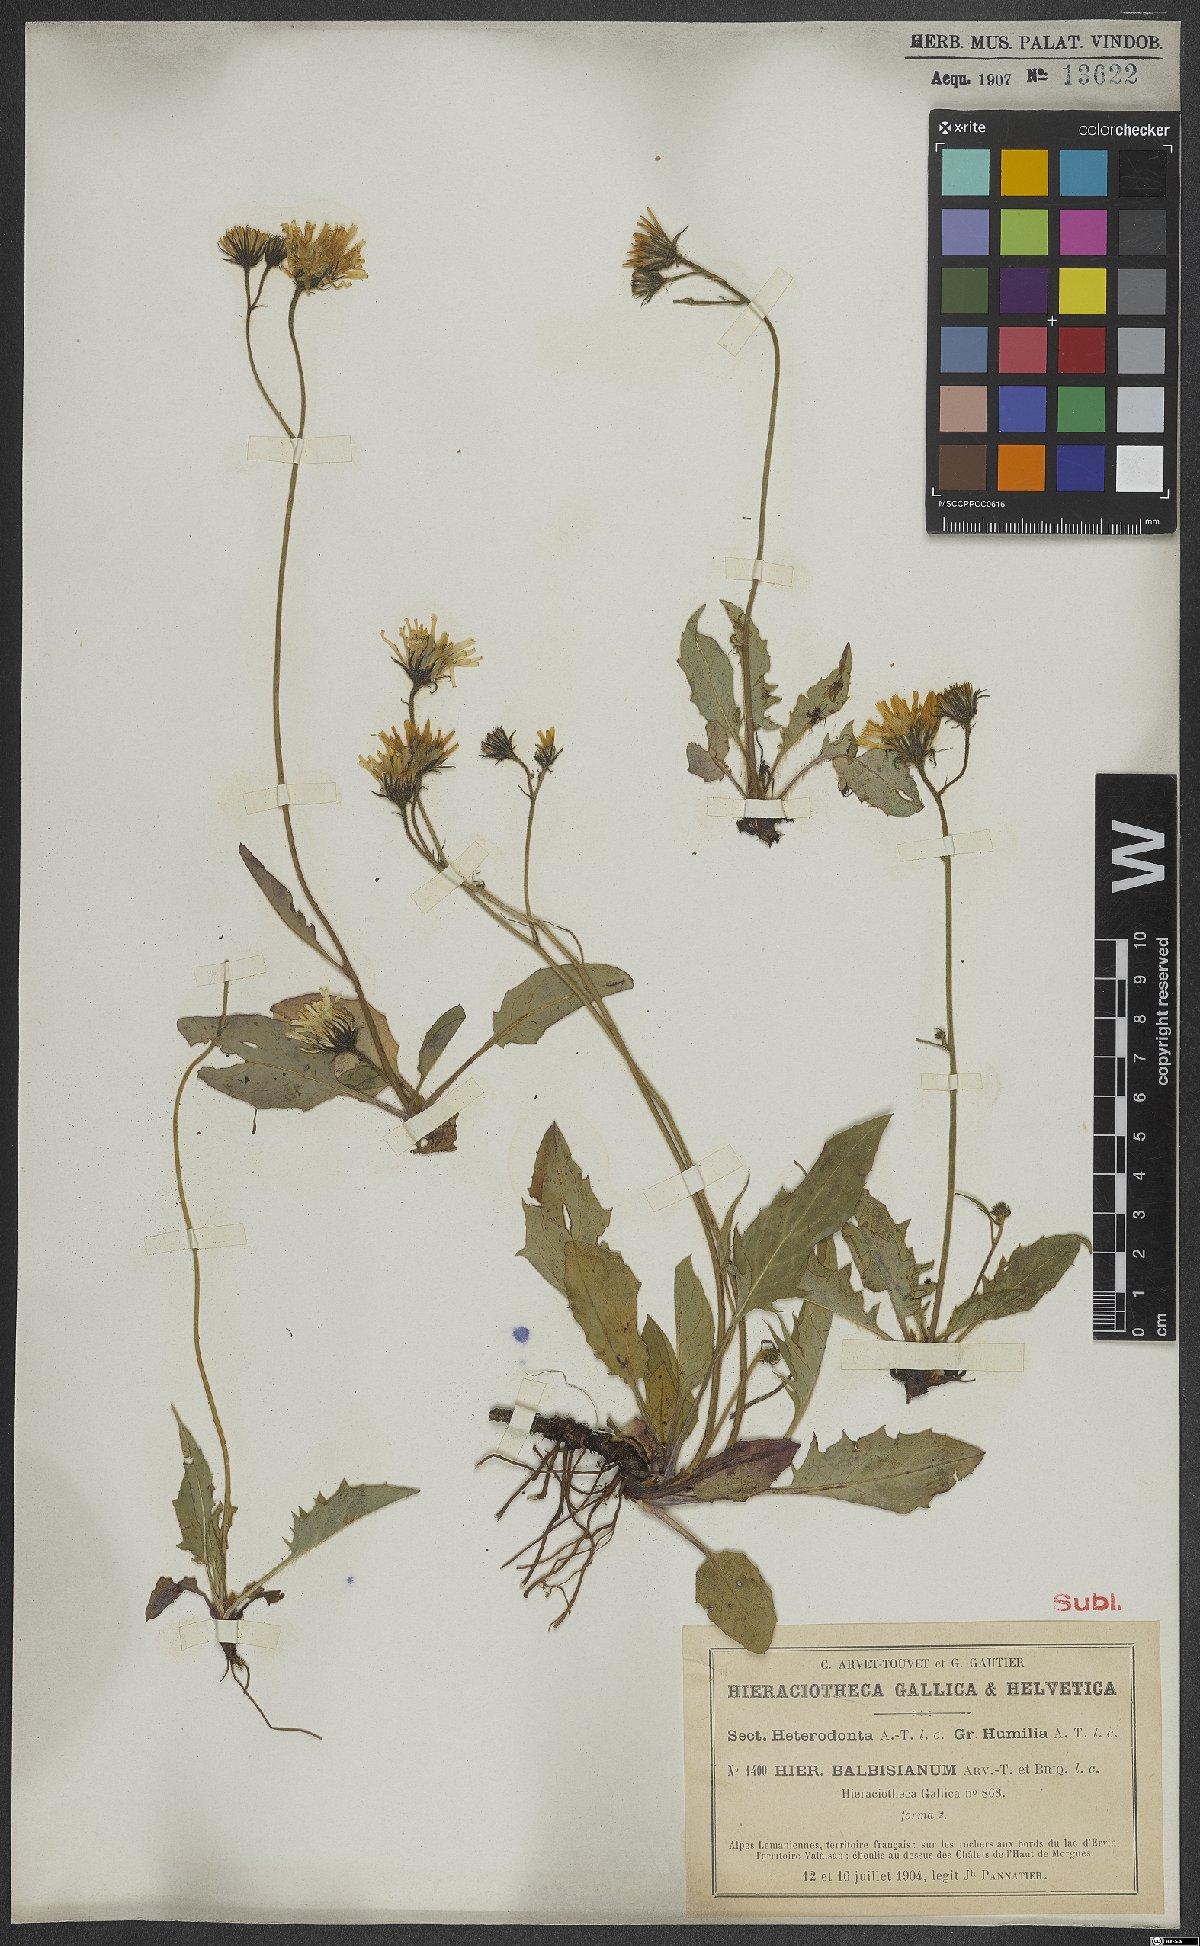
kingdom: Plantae
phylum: Tracheophyta
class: Magnoliopsida
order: Asterales
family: Asteraceae
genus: Hieracium
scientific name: Hieracium balbisianum
